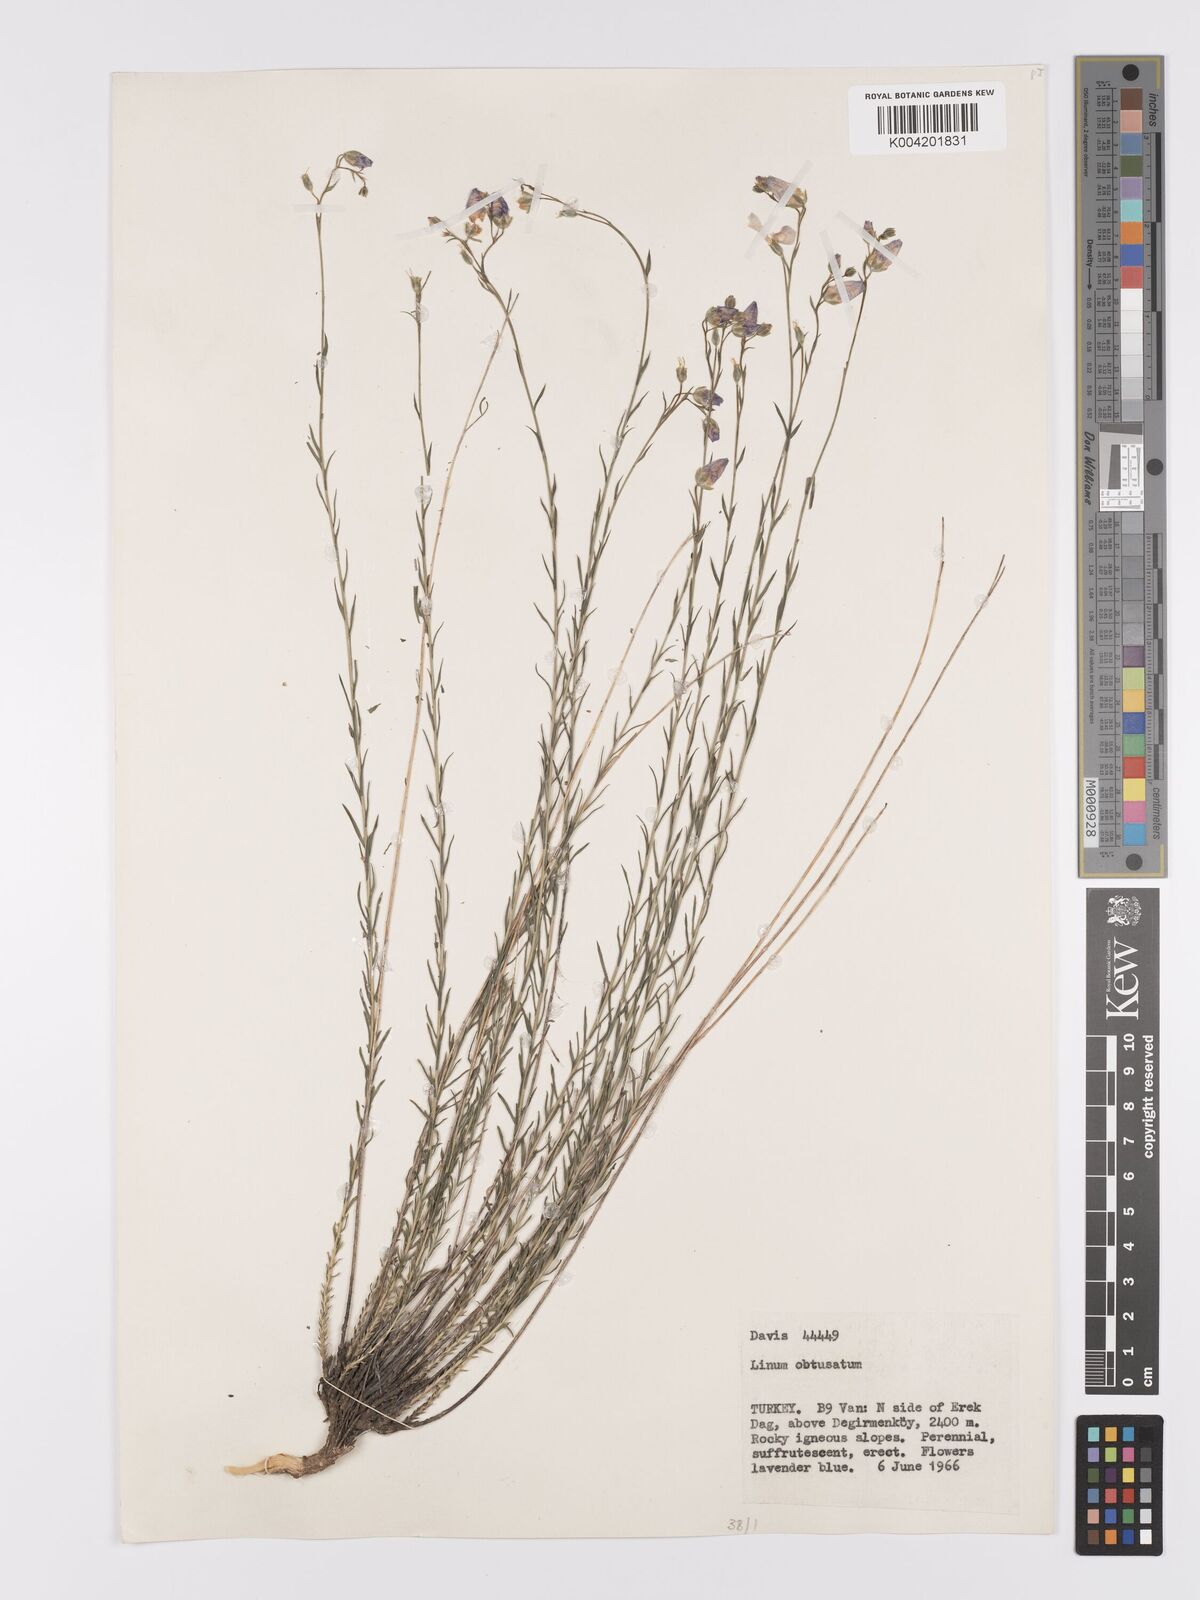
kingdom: Plantae
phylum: Tracheophyta
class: Magnoliopsida
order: Malpighiales
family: Linaceae
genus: Linum
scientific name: Linum obtusatum
